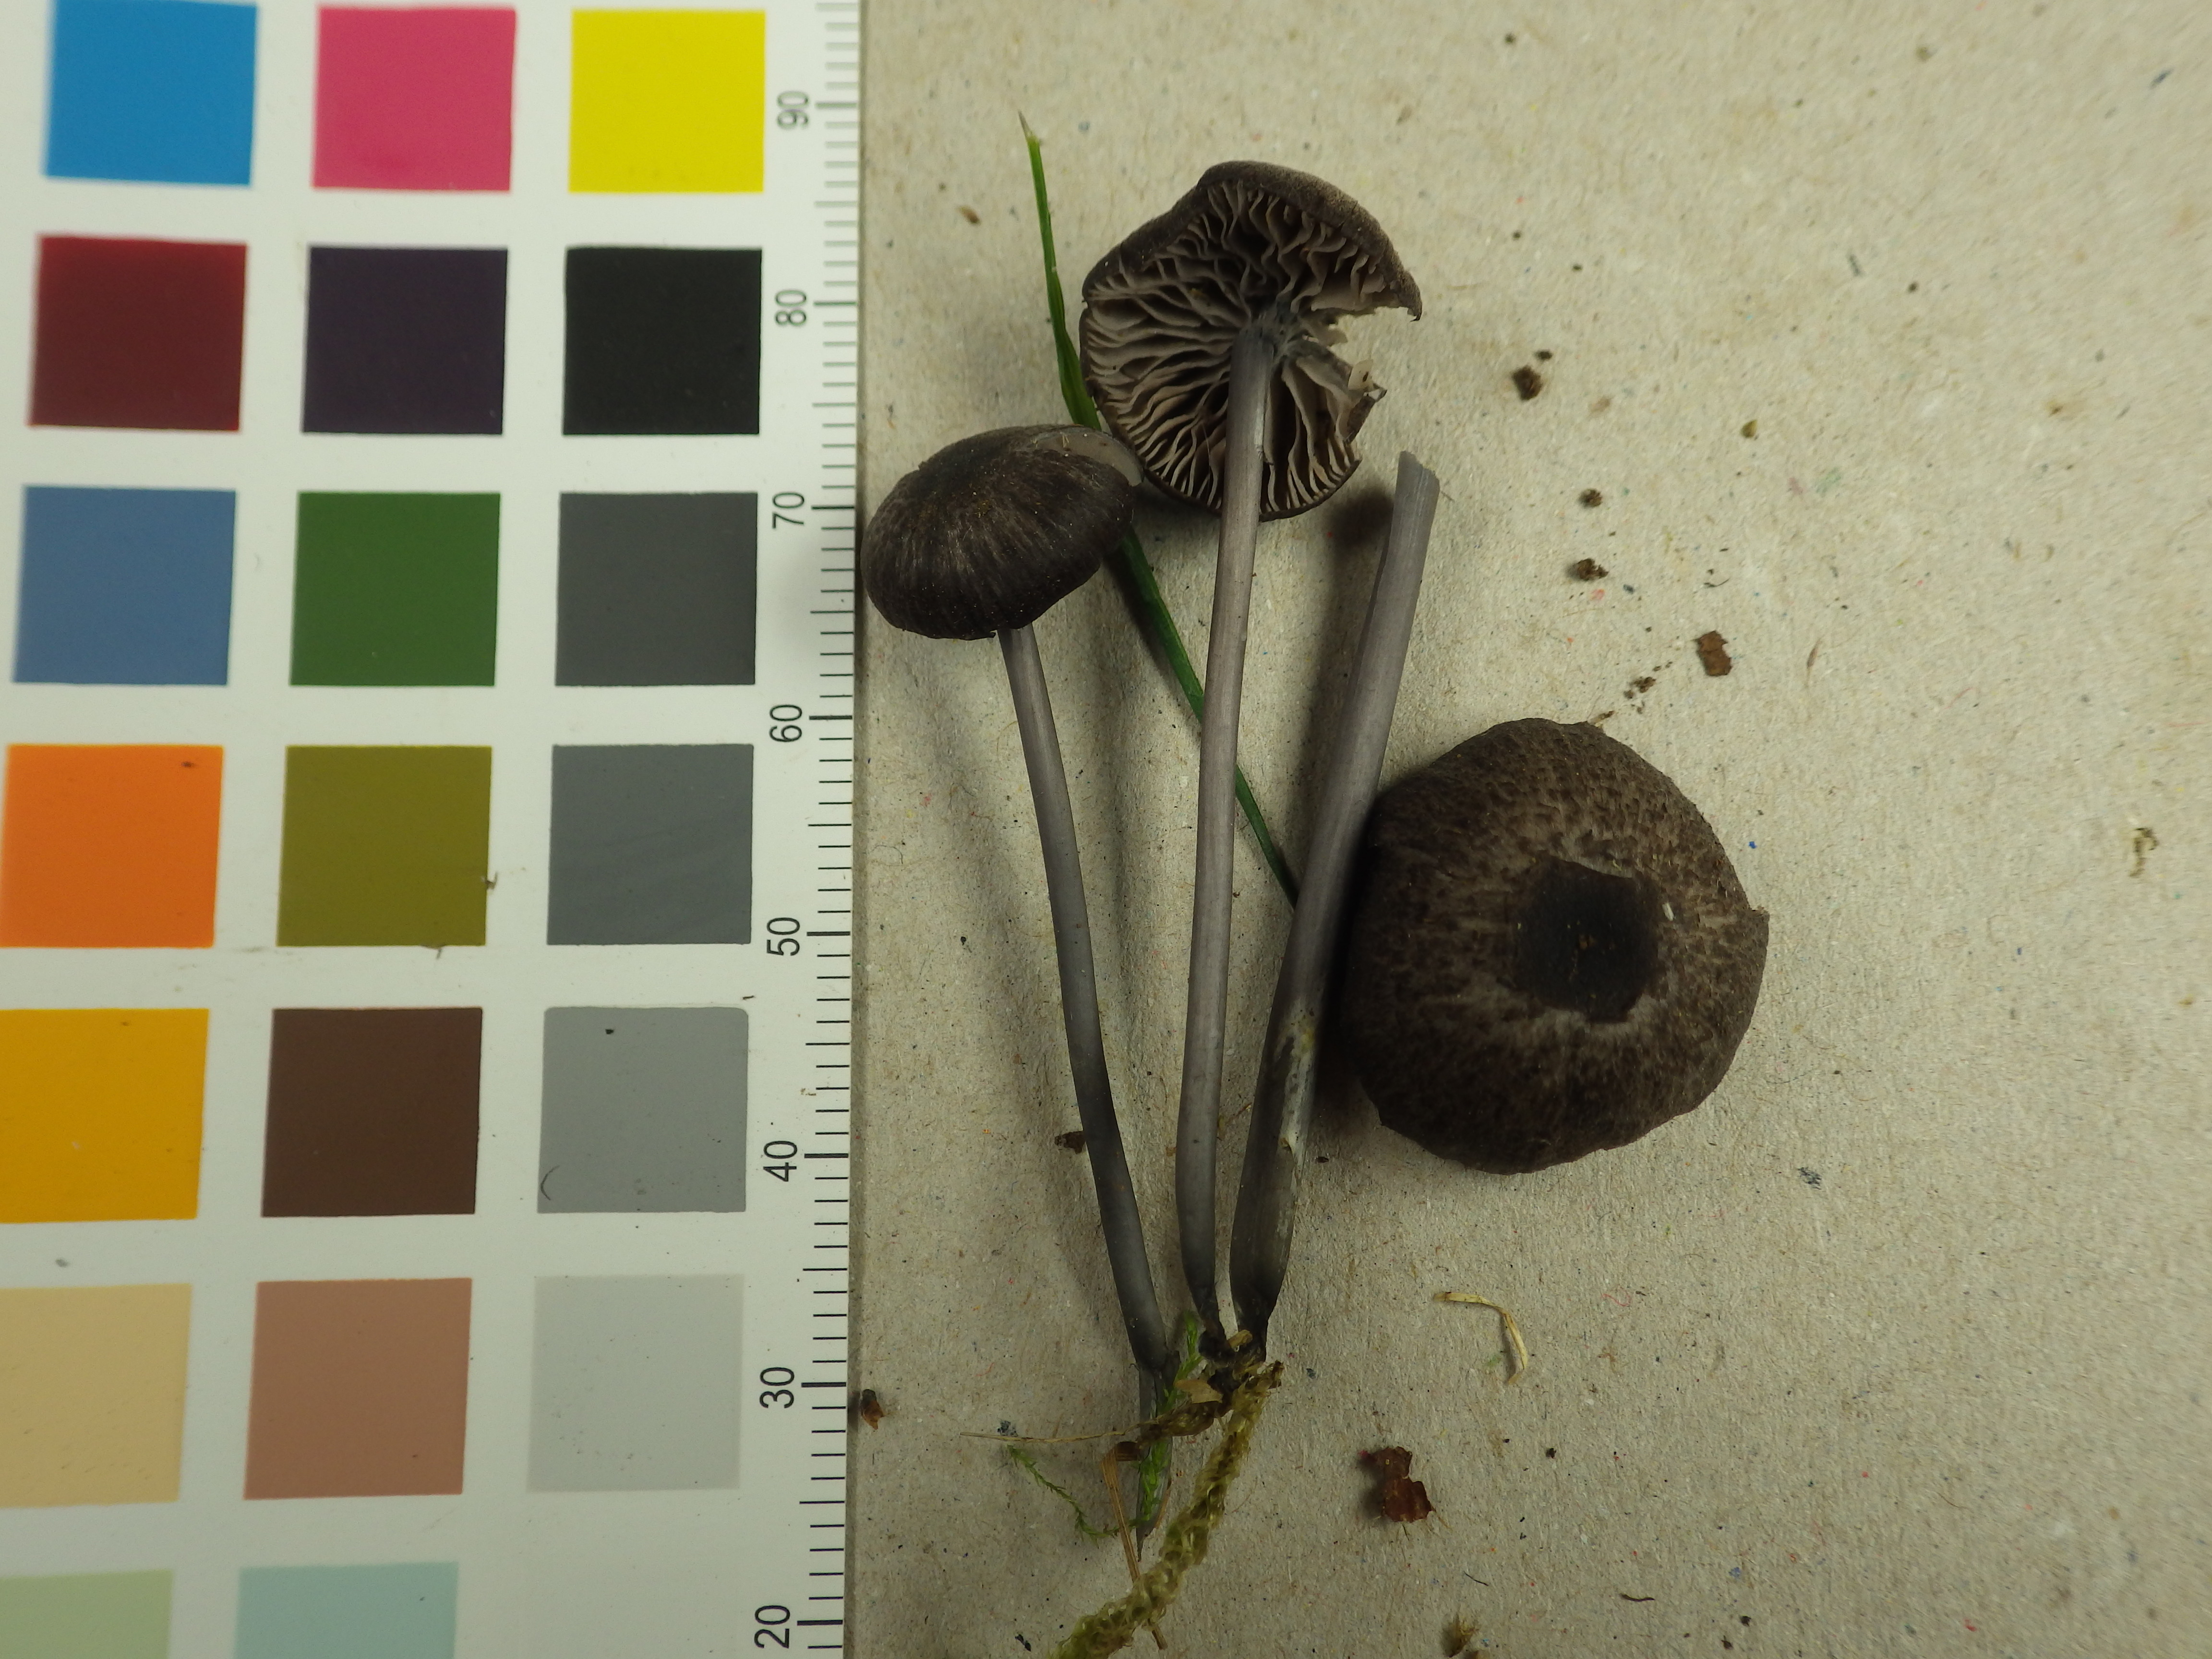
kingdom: Fungi
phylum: Basidiomycota
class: Agaricomycetes
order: Agaricales
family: Entolomataceae
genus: Entoloma
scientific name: Entoloma chalybeum
